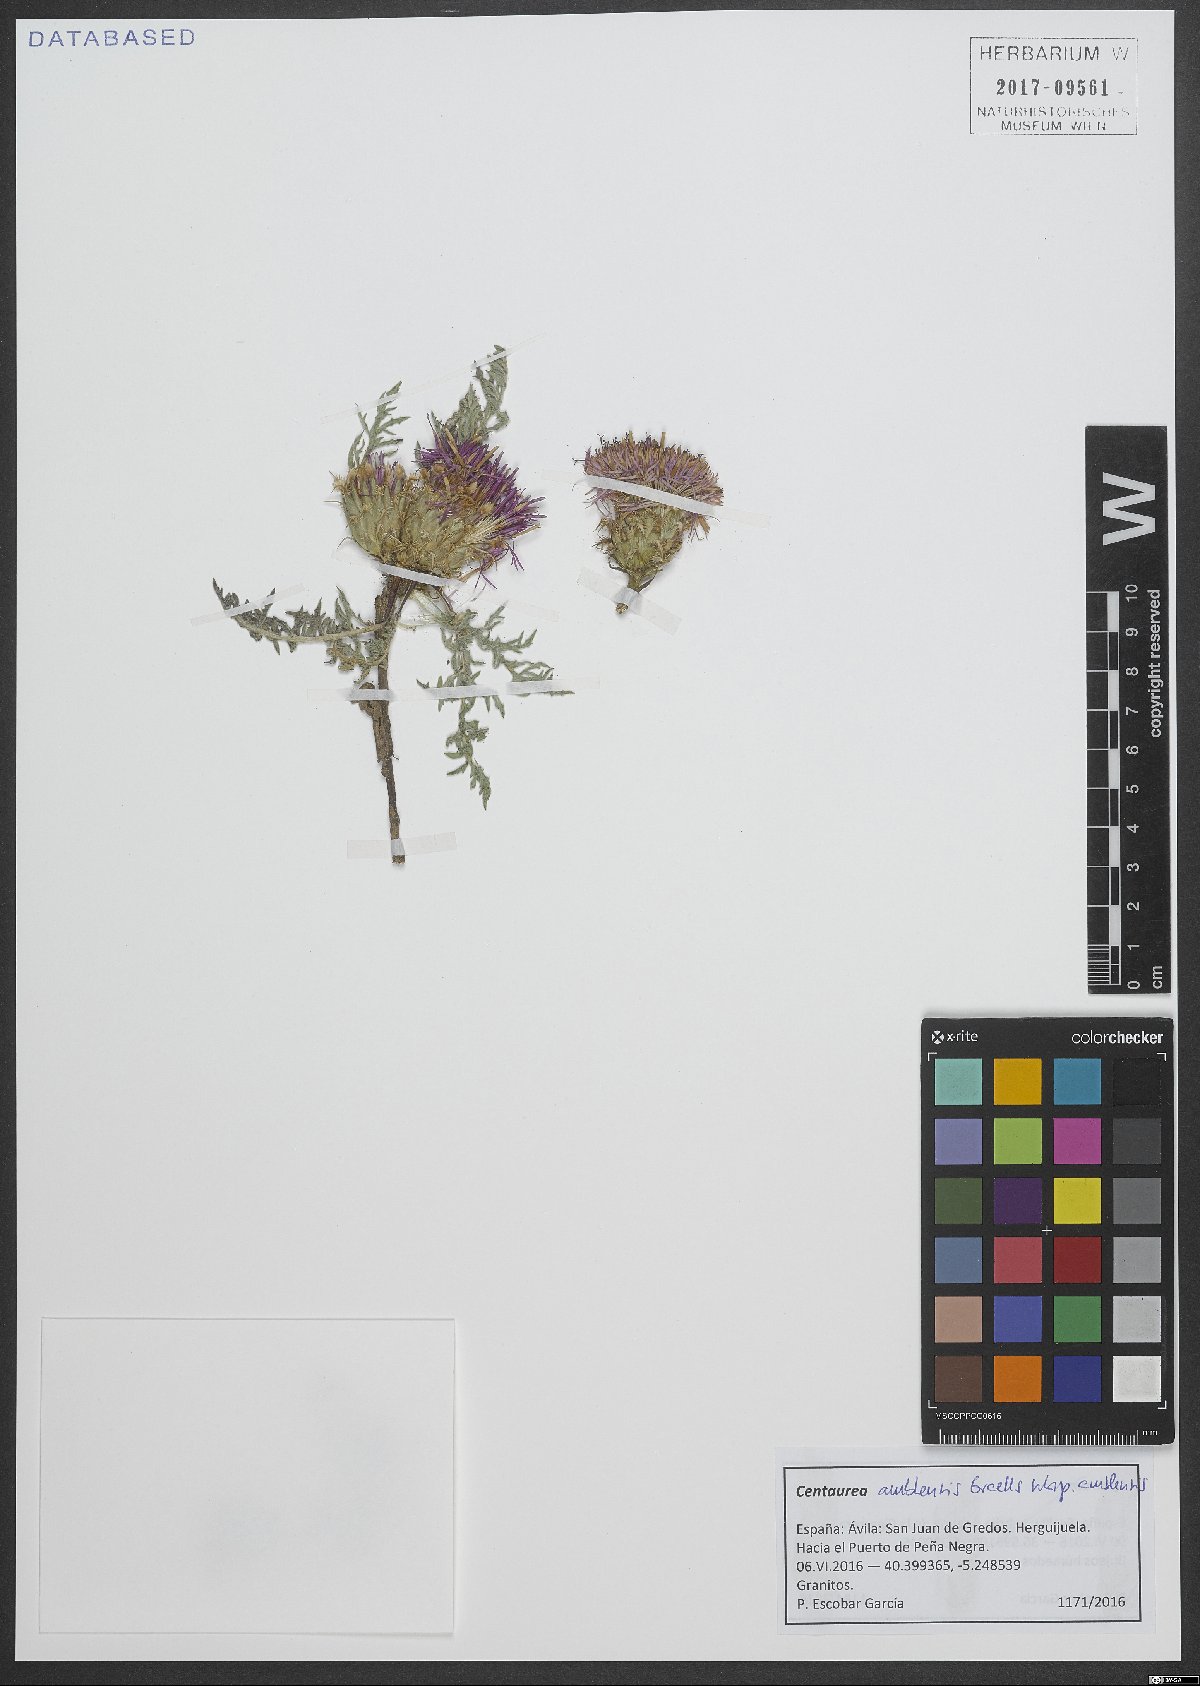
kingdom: Plantae
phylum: Tracheophyta
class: Magnoliopsida
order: Asterales
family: Asteraceae
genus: Centaurea
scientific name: Centaurea amblensis
